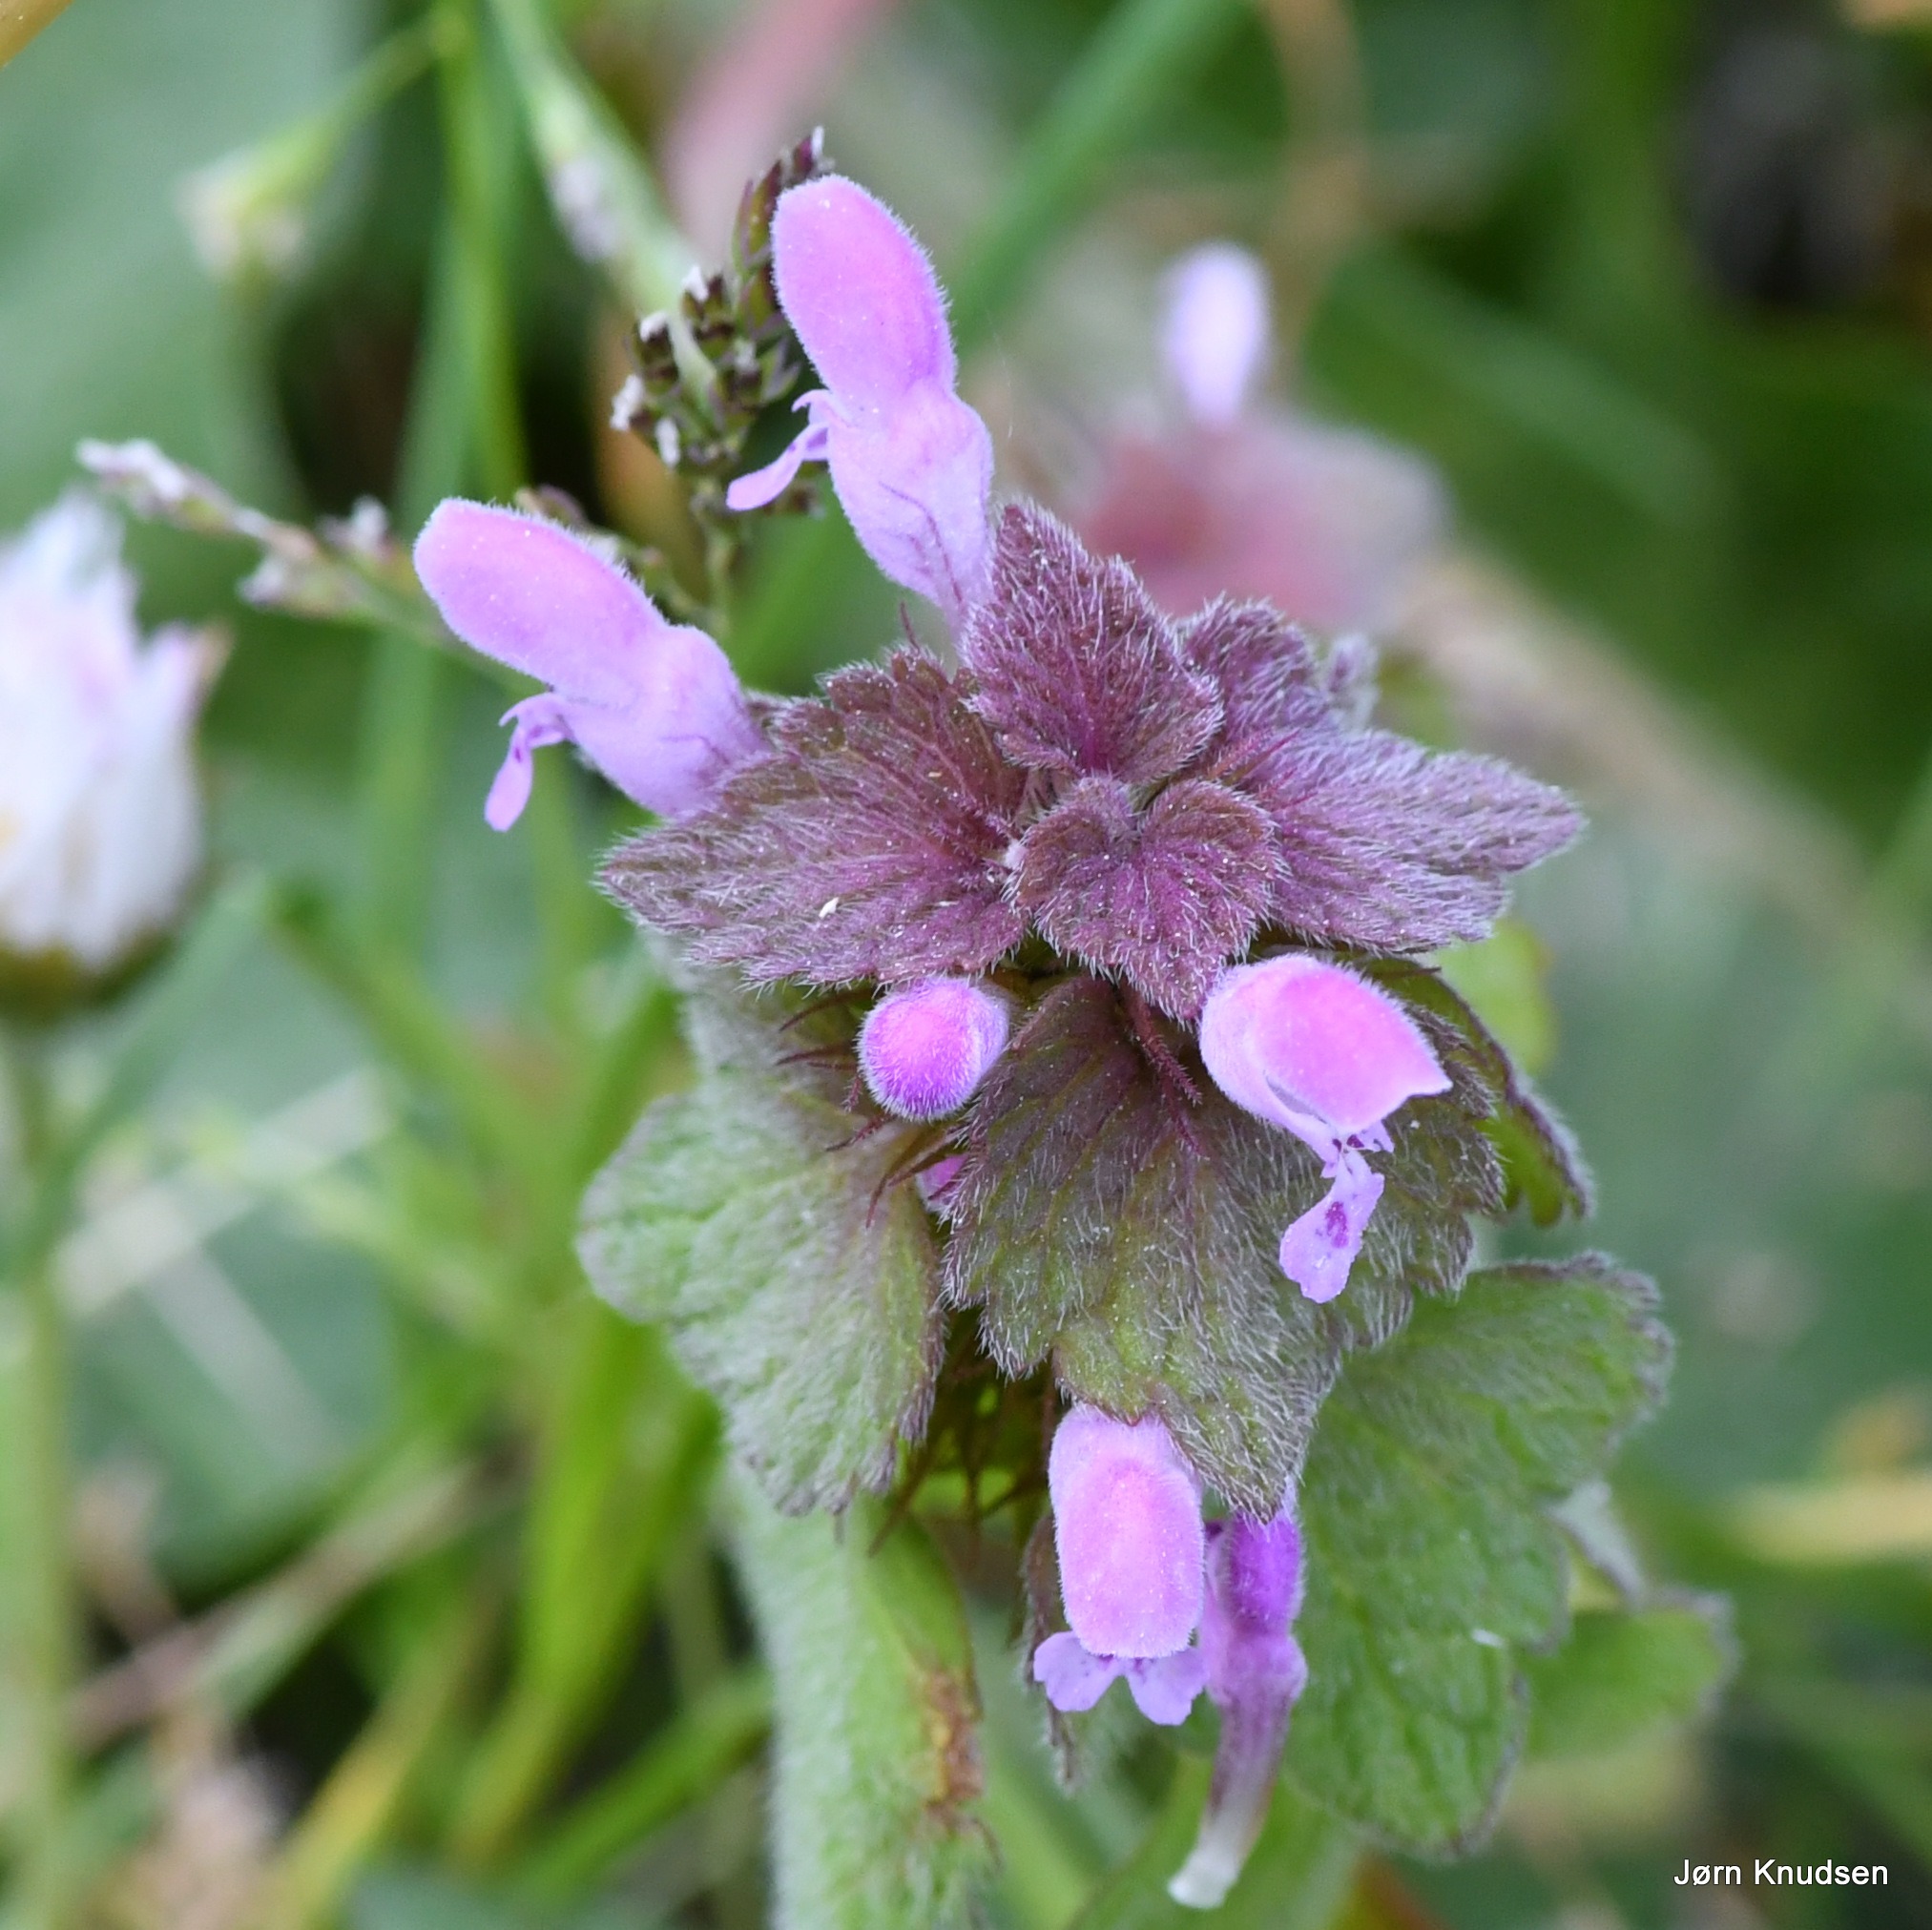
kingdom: Plantae
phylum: Tracheophyta
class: Magnoliopsida
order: Lamiales
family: Lamiaceae
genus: Lamium
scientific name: Lamium purpureum
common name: Rød tvetand
